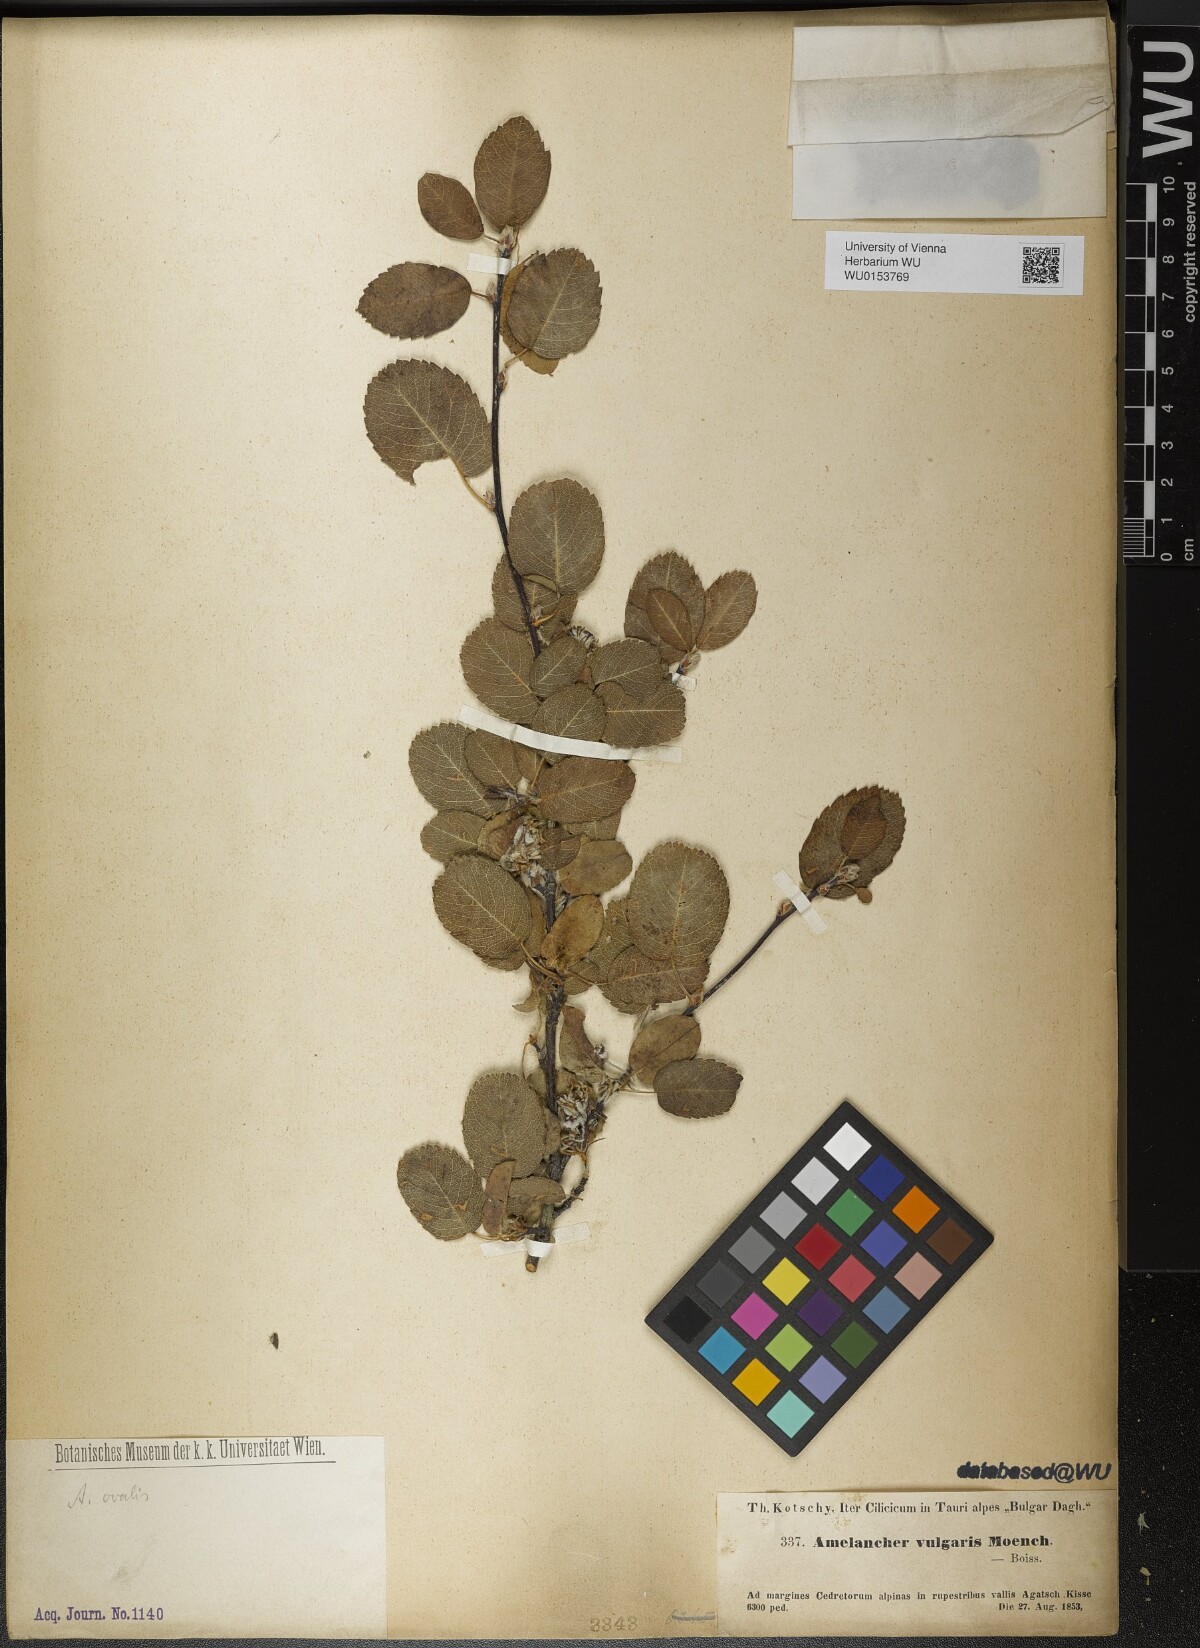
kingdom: Plantae
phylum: Tracheophyta
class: Magnoliopsida
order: Rosales
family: Rosaceae
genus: Amelanchier
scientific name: Amelanchier ovalis
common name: Serviceberry
